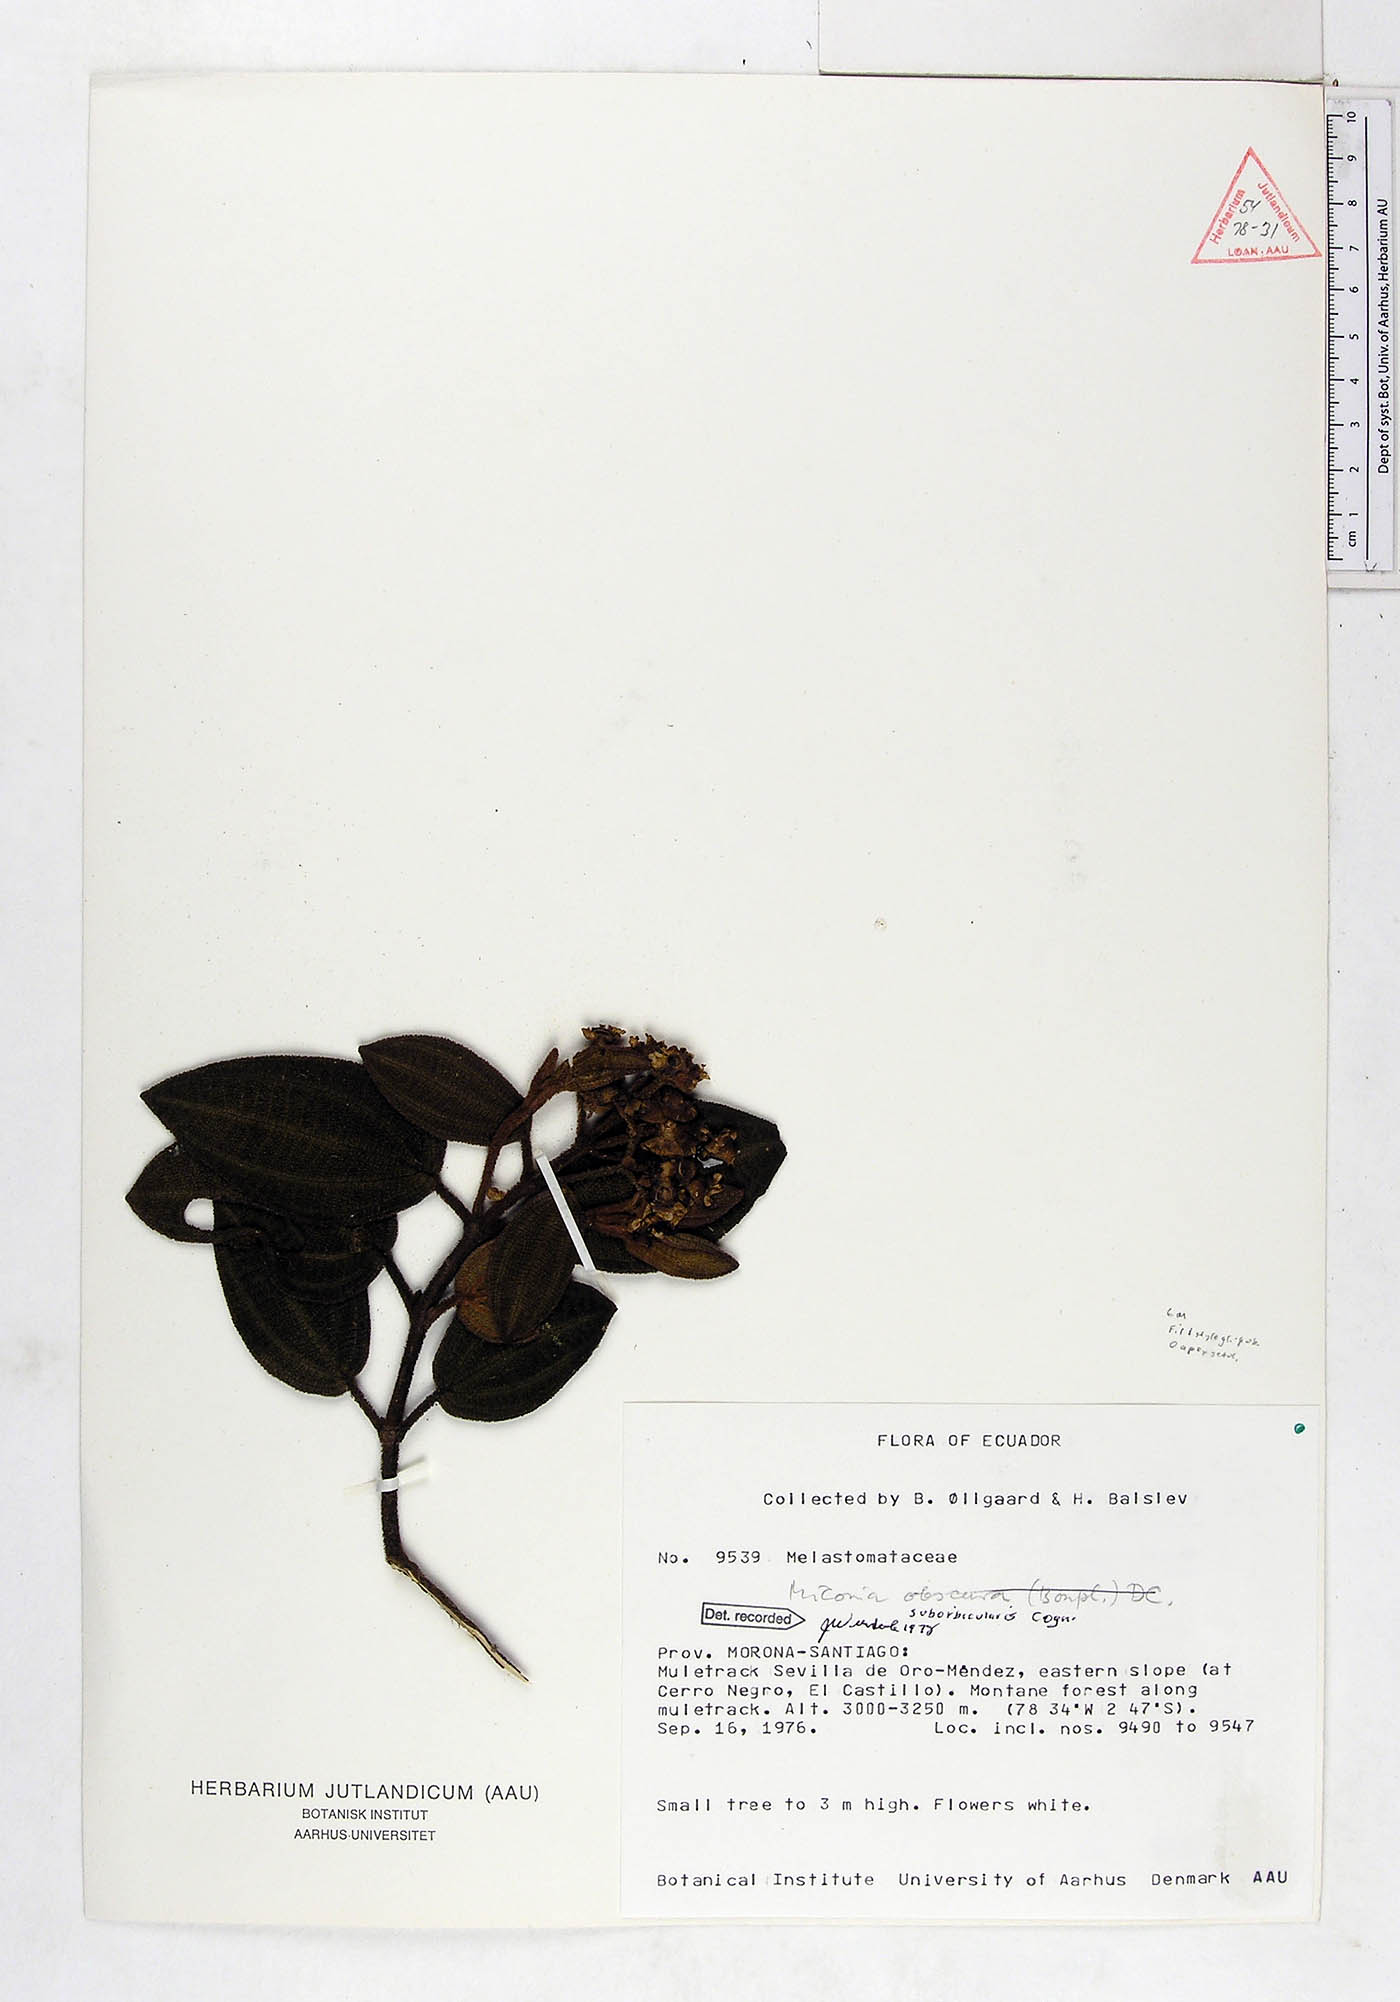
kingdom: Plantae
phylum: Tracheophyta
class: Magnoliopsida
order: Myrtales
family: Melastomataceae
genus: Miconia
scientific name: Miconia suborbicularis
